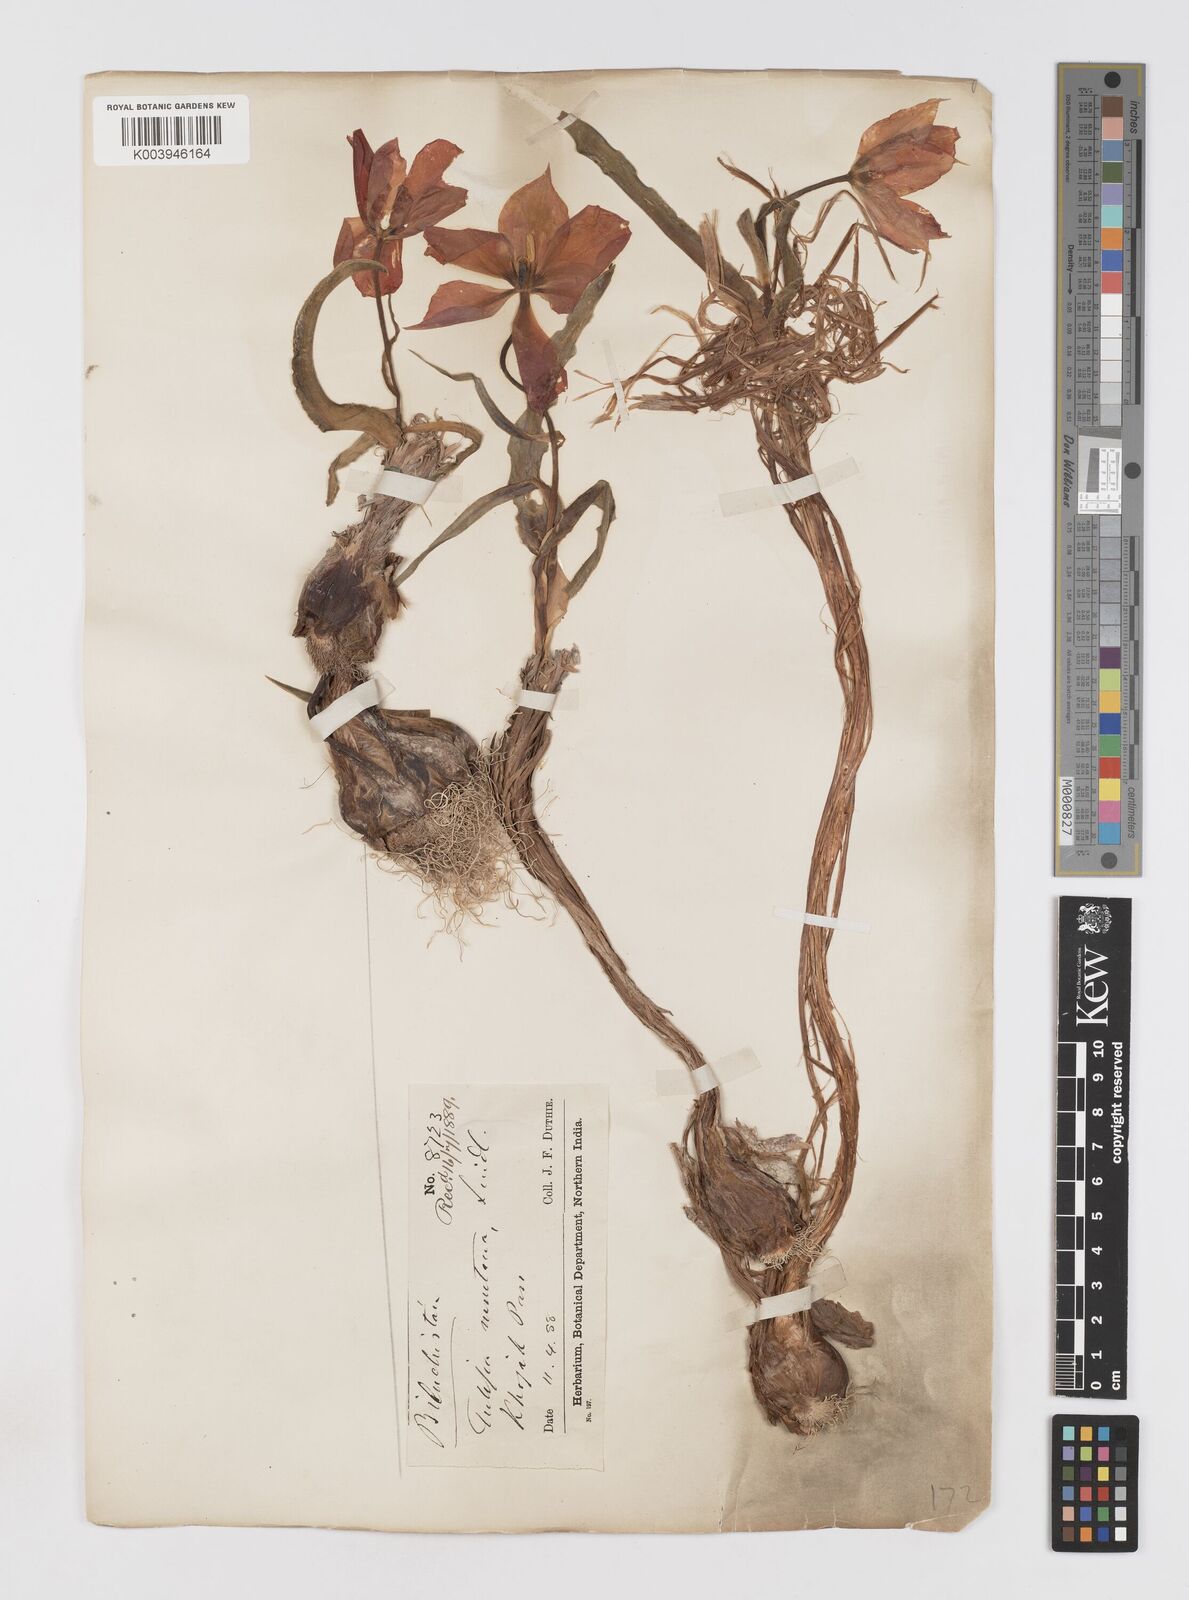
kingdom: Plantae
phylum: Tracheophyta
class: Liliopsida
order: Liliales
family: Liliaceae
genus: Tulipa
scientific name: Tulipa borszczowii
